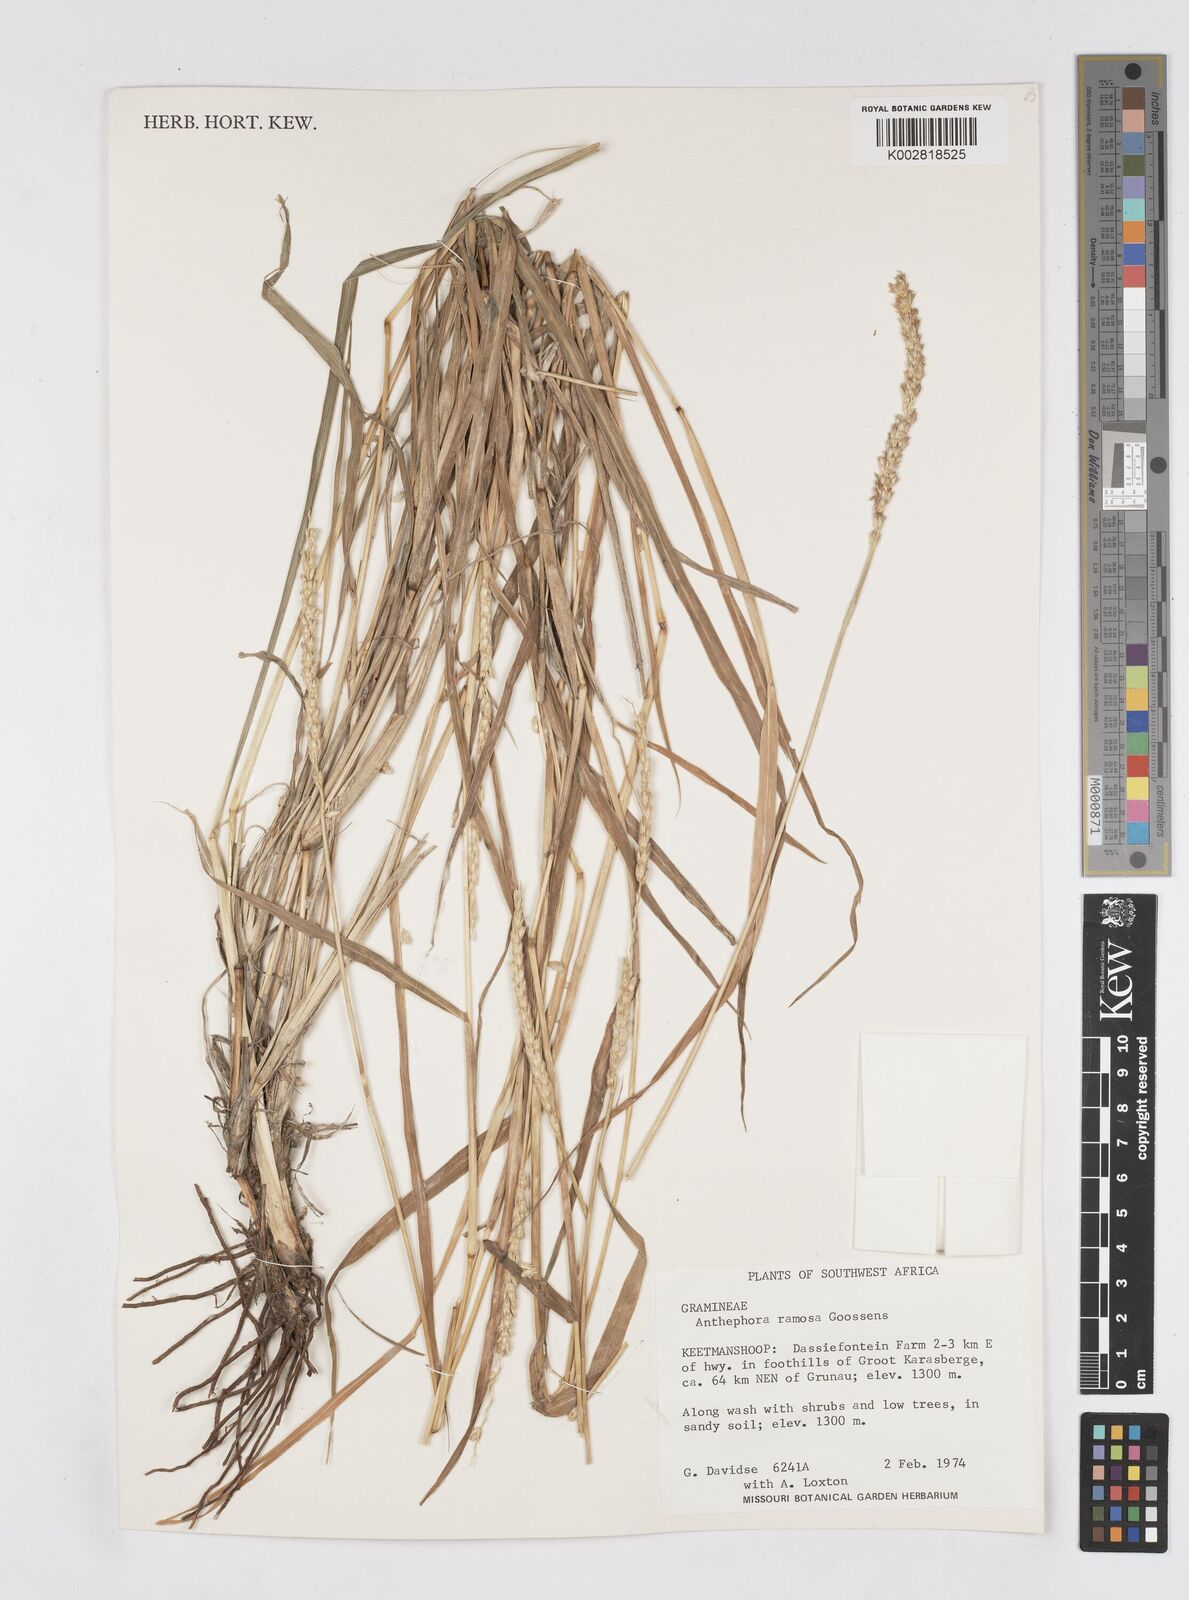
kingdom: Plantae
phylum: Tracheophyta
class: Liliopsida
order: Poales
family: Poaceae
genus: Anthephora
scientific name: Anthephora pubescens
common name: Wool grass
